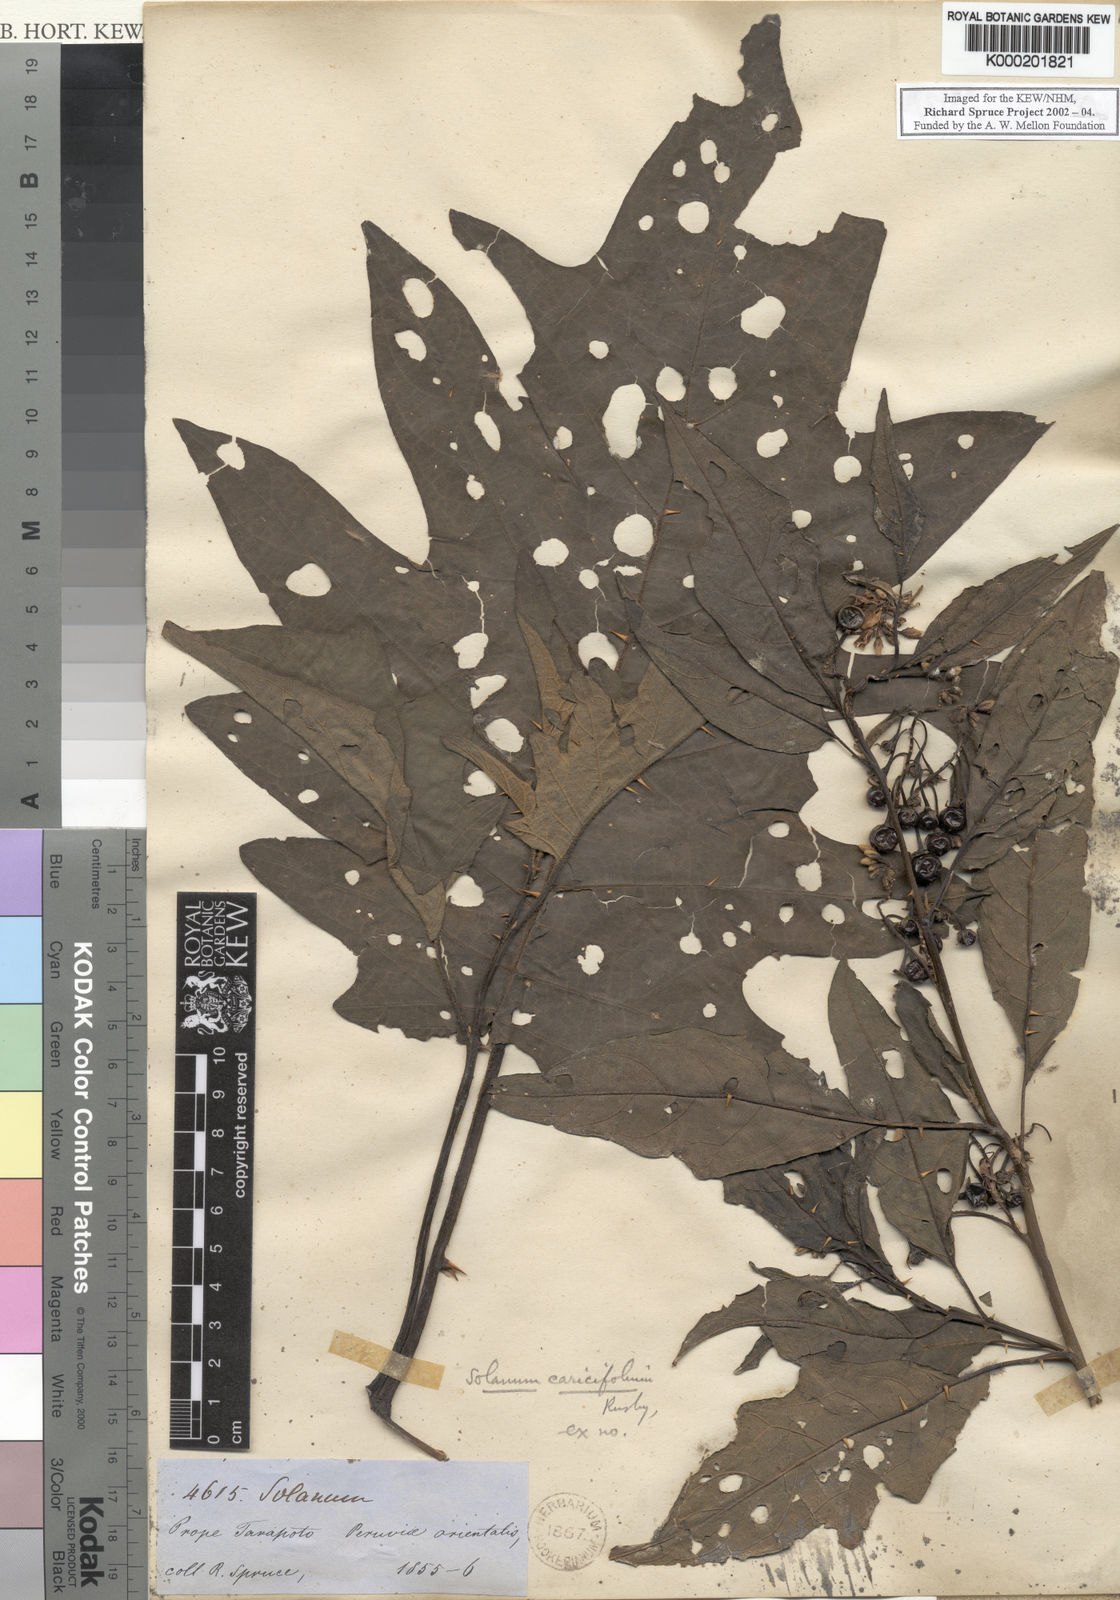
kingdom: Plantae
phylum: Tracheophyta
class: Magnoliopsida
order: Solanales
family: Solanaceae
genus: Solanum
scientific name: Solanum caricaefolium
